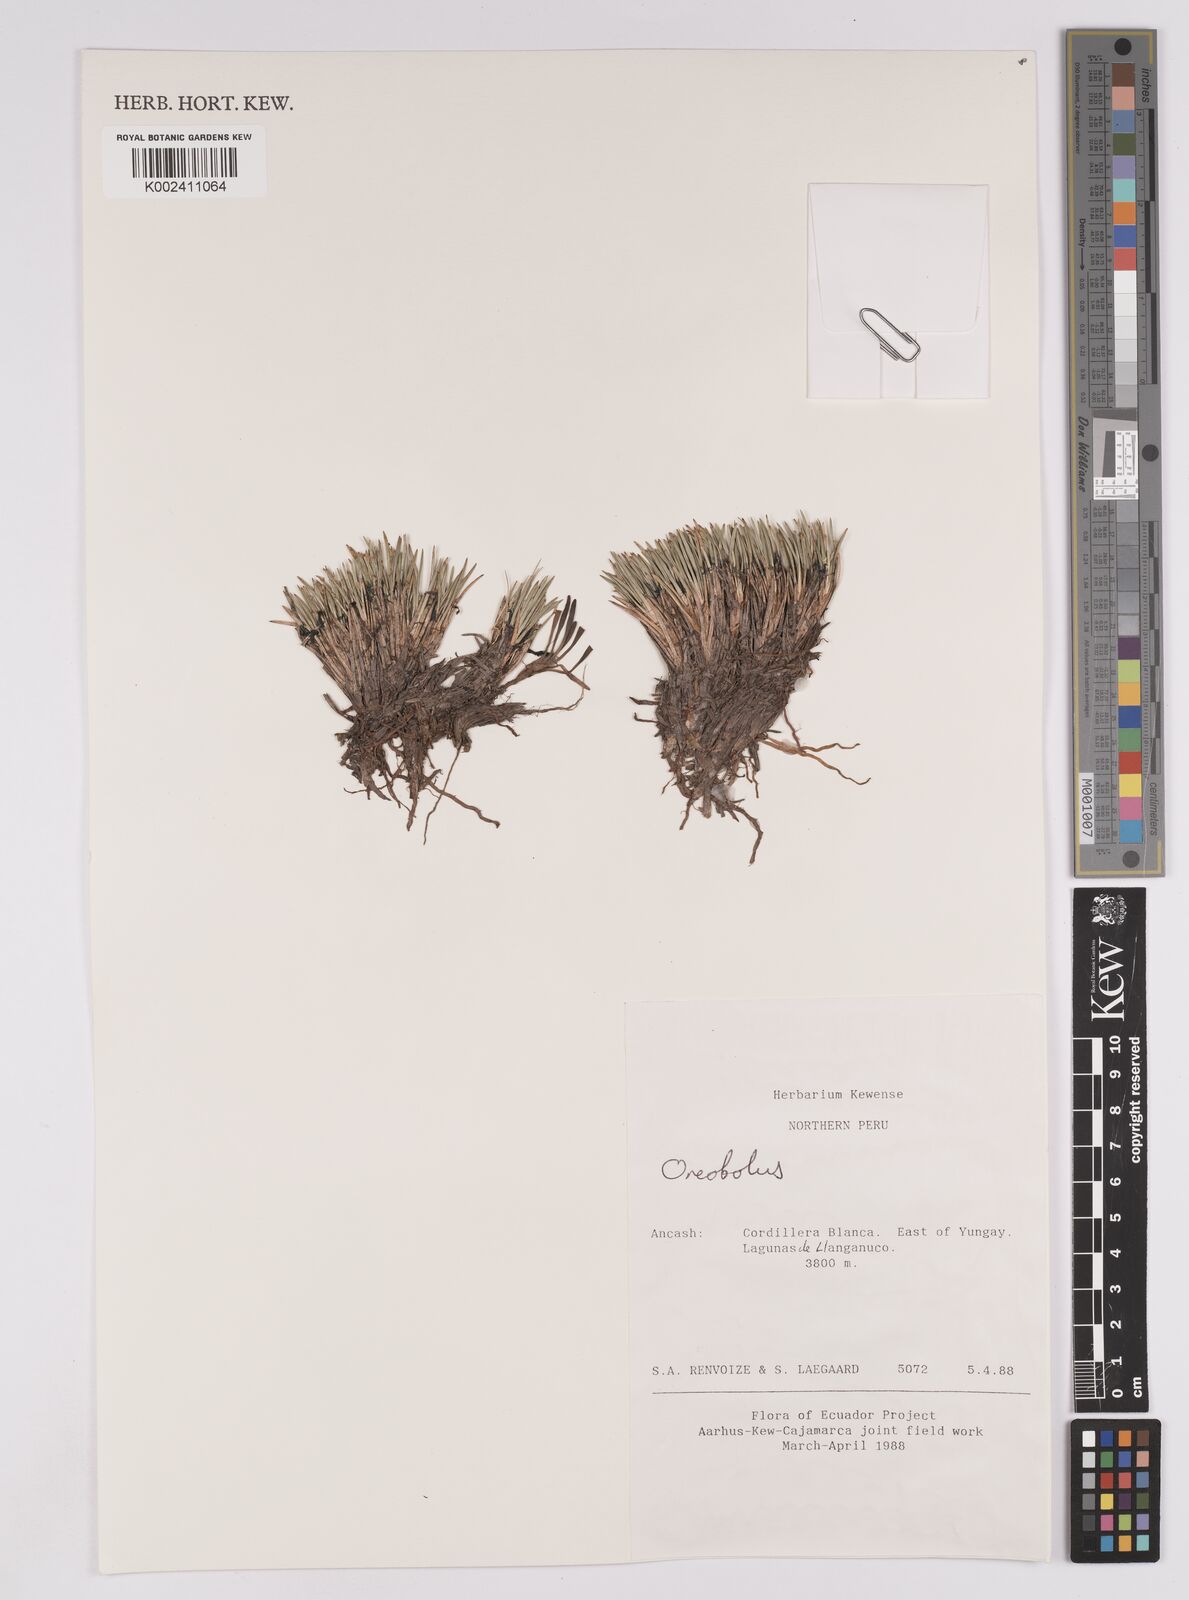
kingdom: Plantae
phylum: Tracheophyta
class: Liliopsida
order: Poales
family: Cyperaceae
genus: Oreobolus
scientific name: Oreobolus
